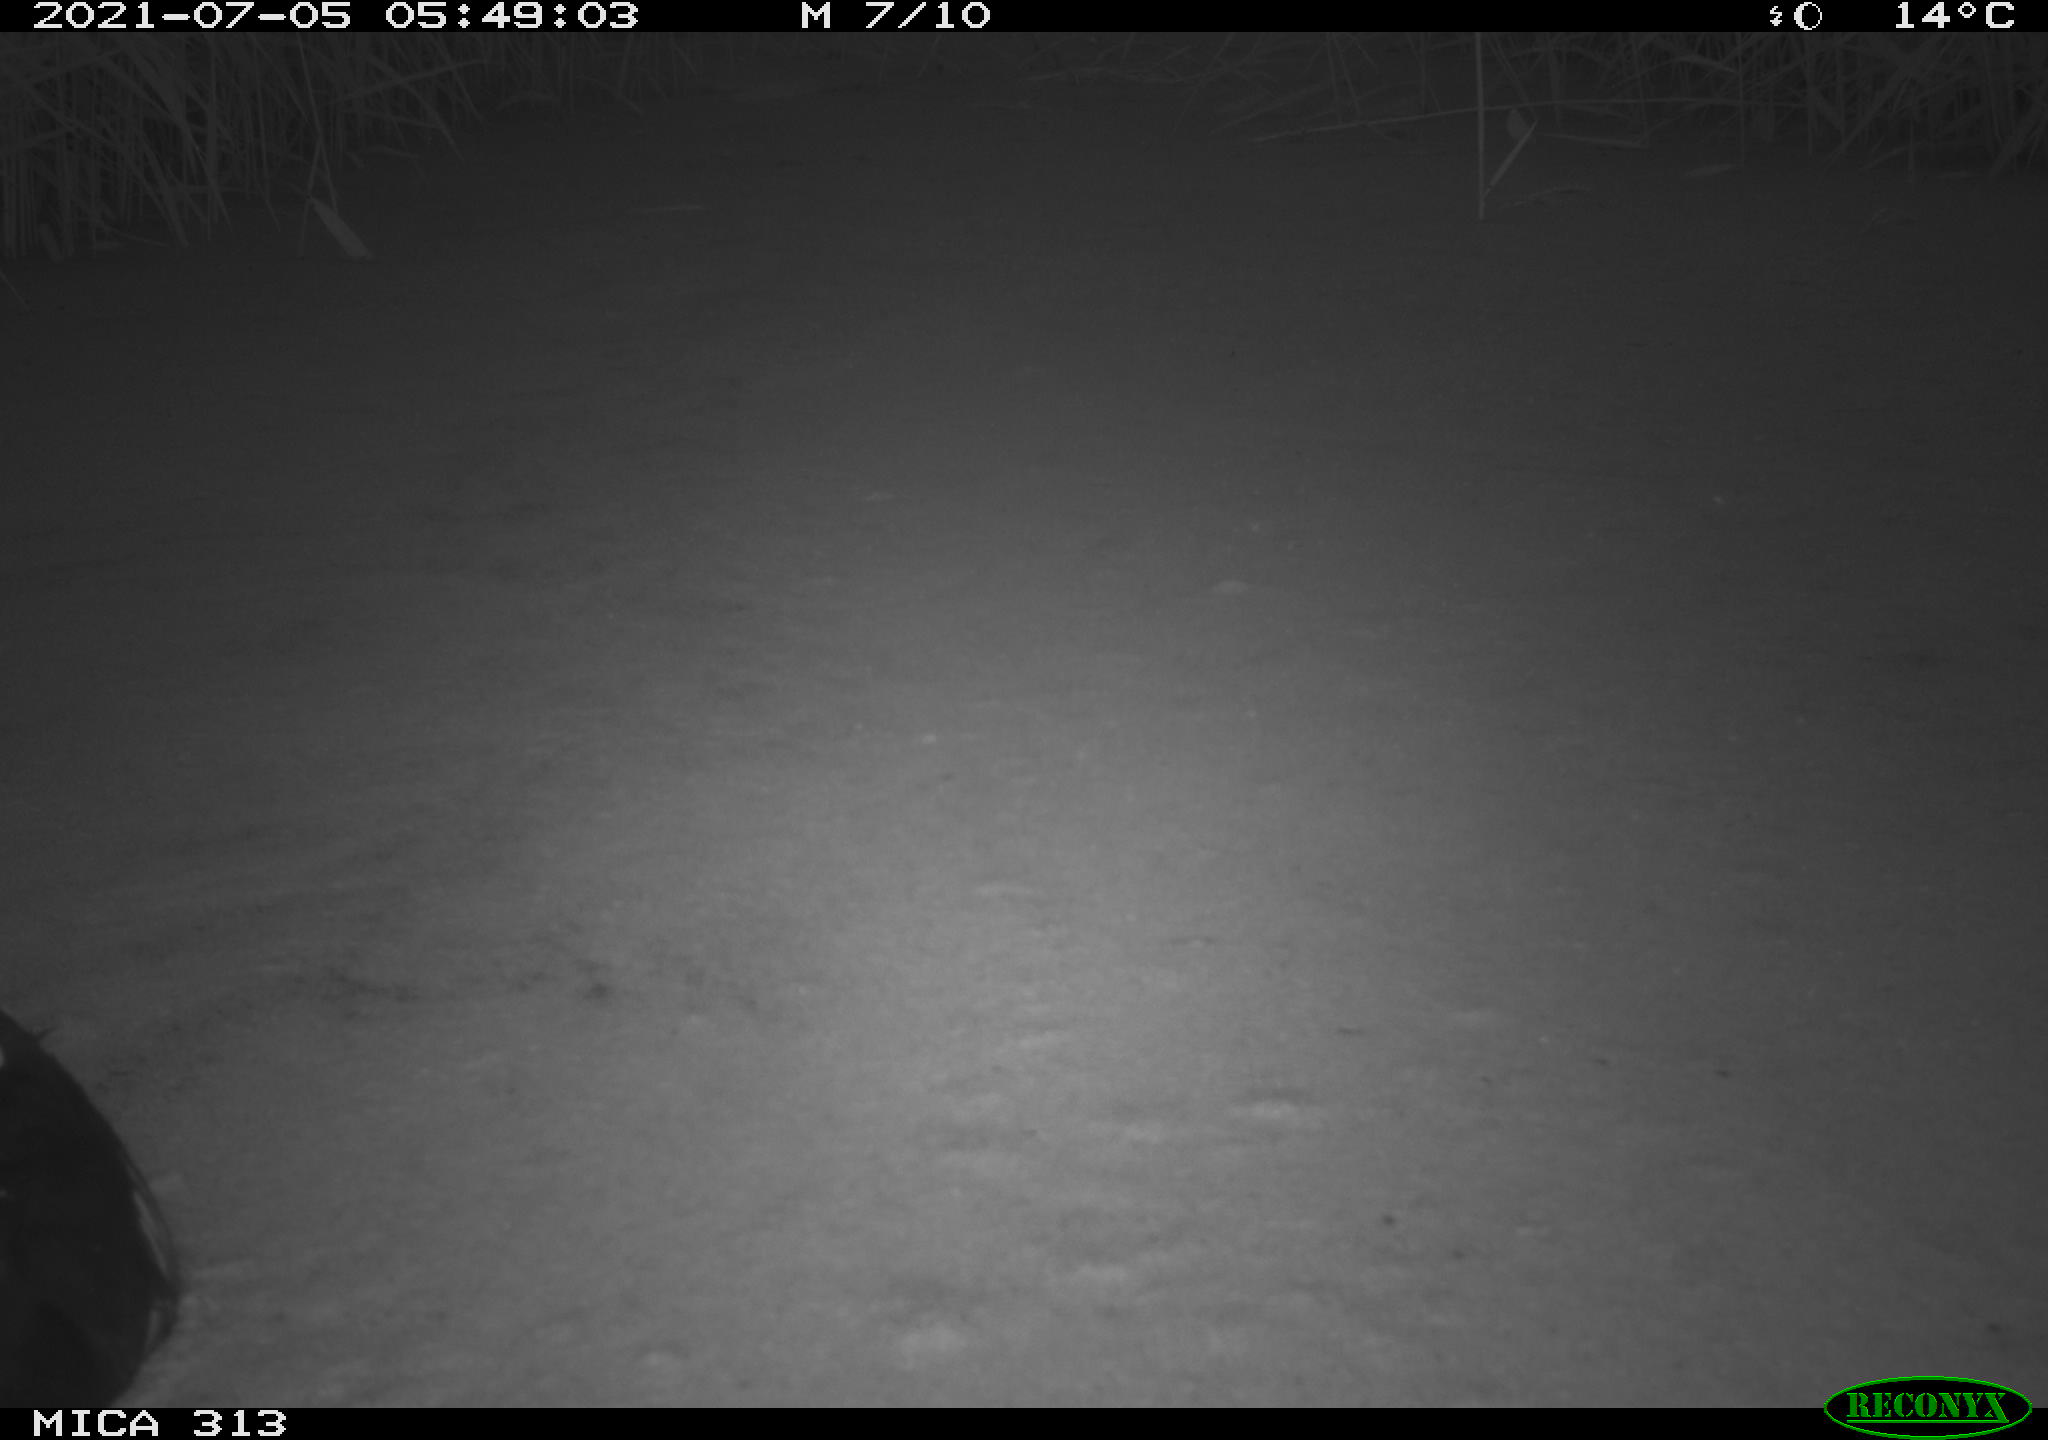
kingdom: Animalia
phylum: Chordata
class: Aves
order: Gruiformes
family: Rallidae
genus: Fulica
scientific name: Fulica atra
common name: Eurasian coot
